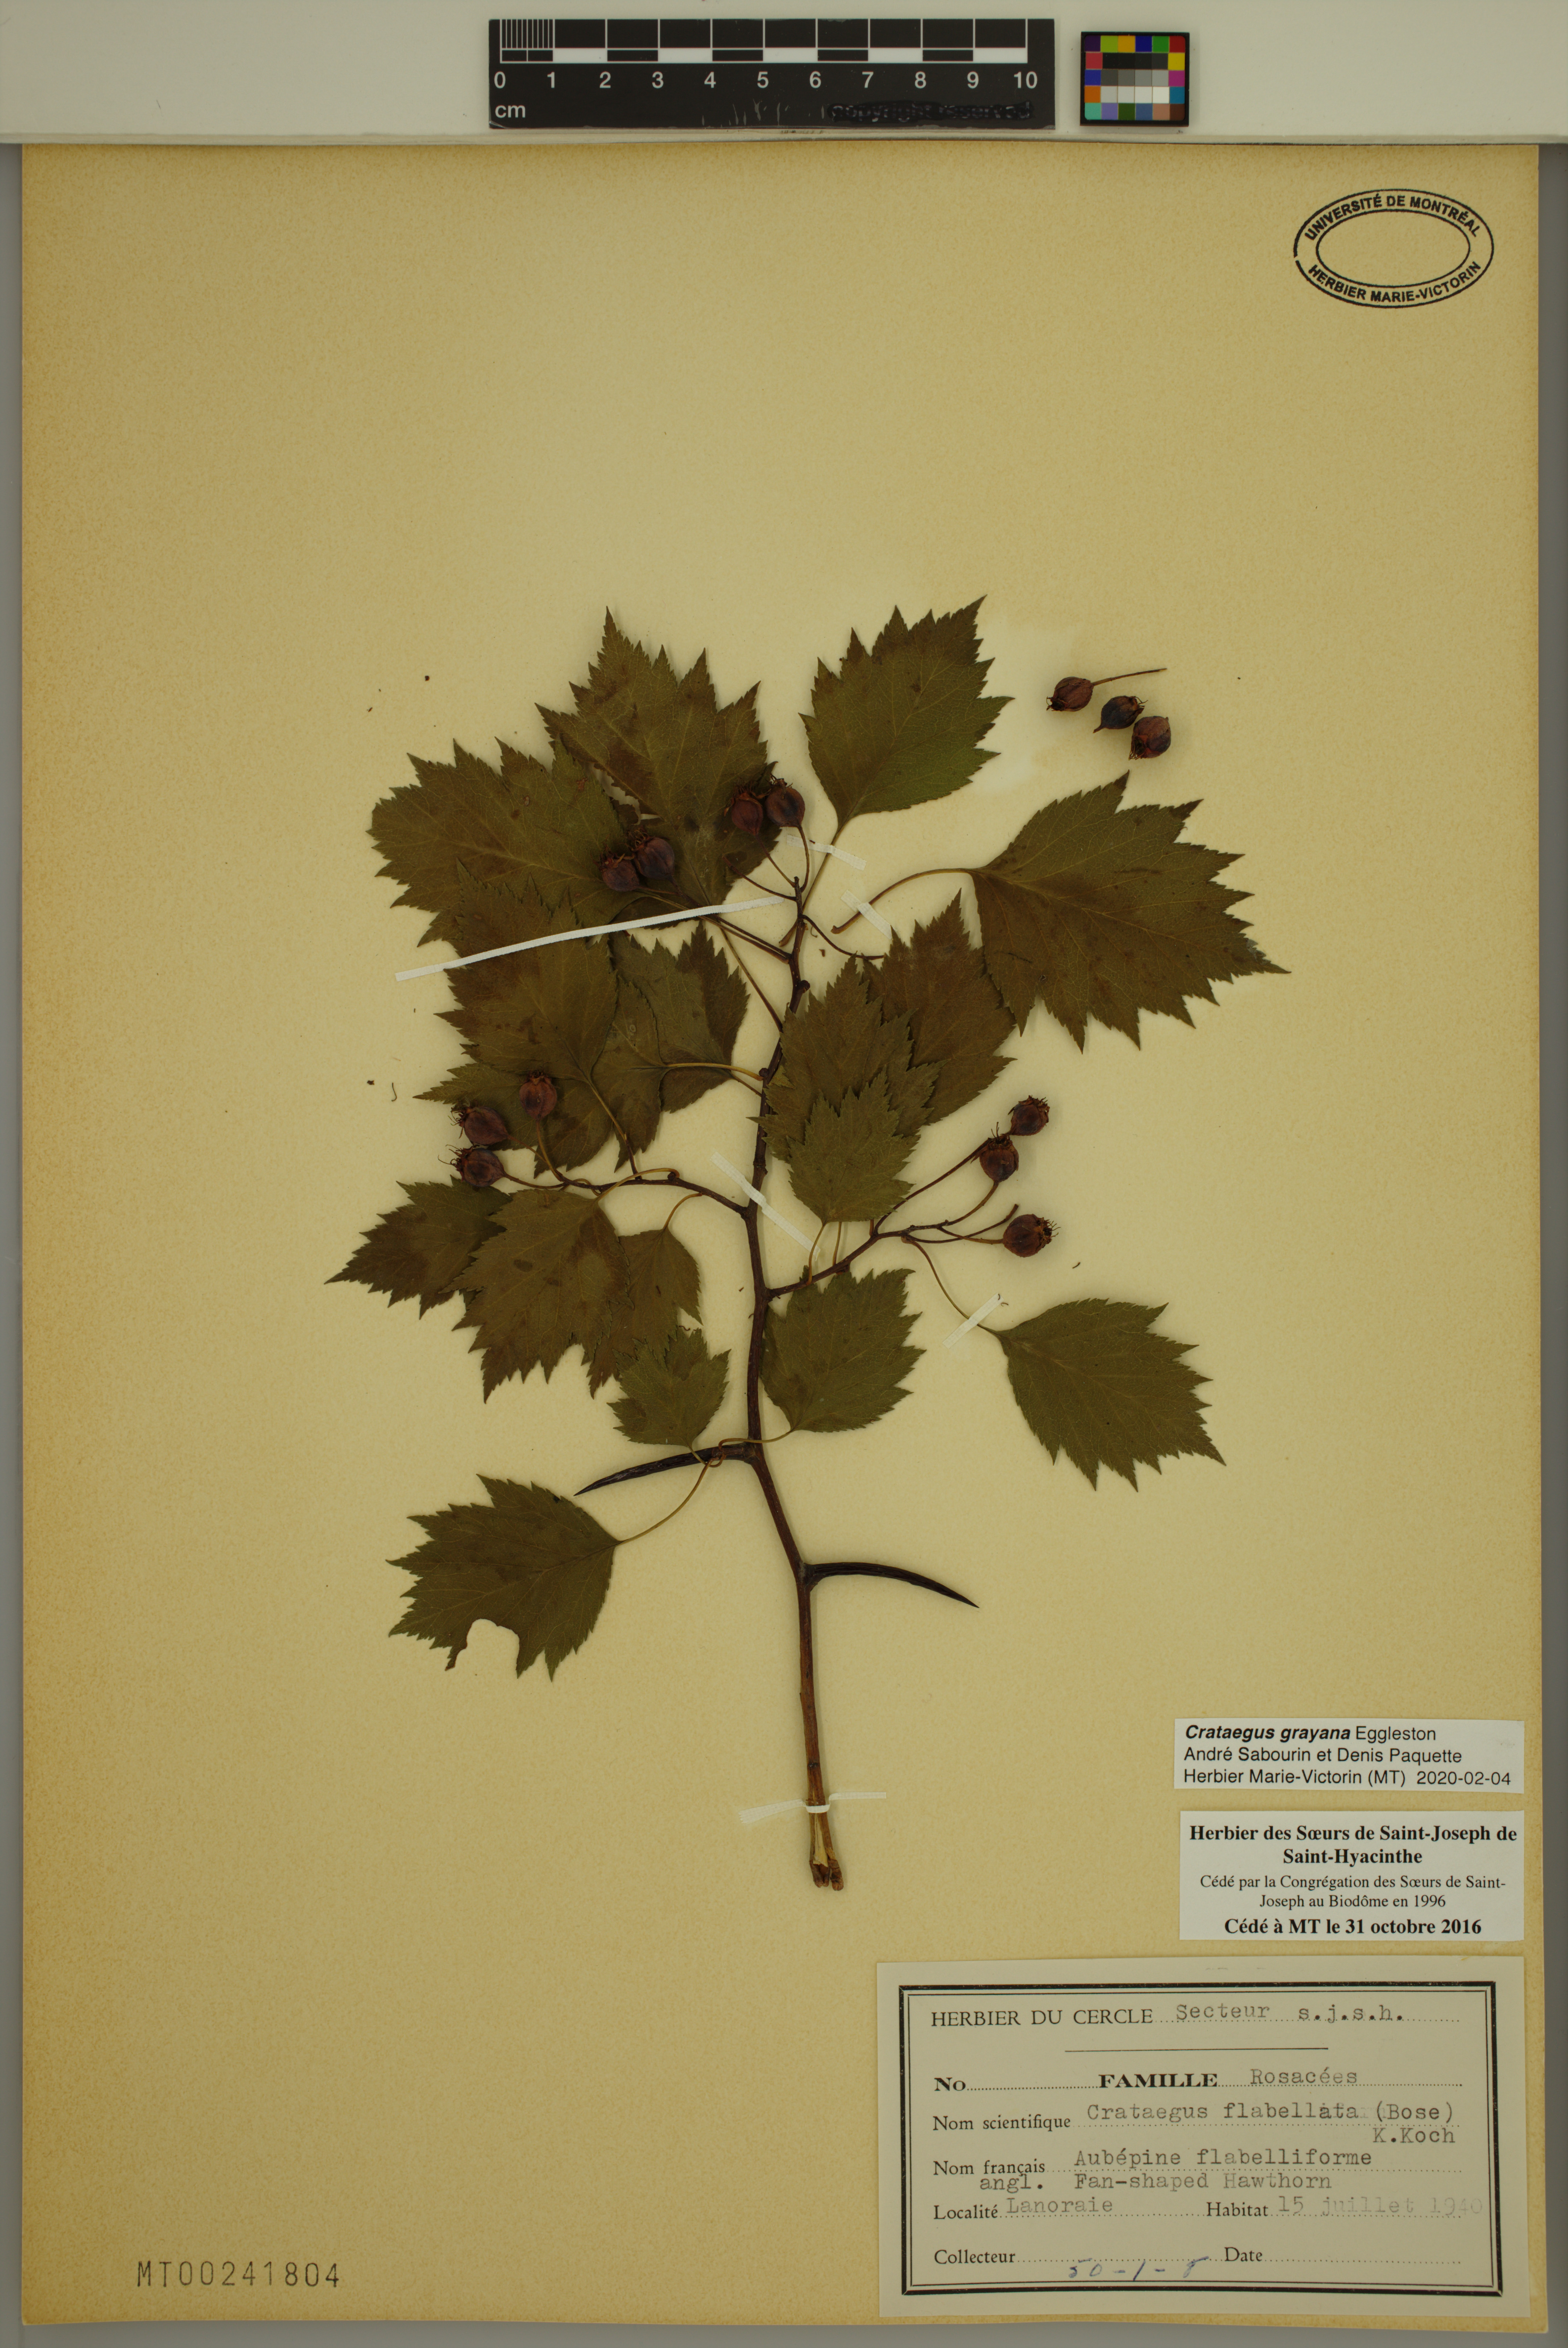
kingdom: Plantae
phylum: Tracheophyta
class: Magnoliopsida
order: Rosales
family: Rosaceae
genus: Crataegus
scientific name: Crataegus schuettei
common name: Schuette's hawthorn
